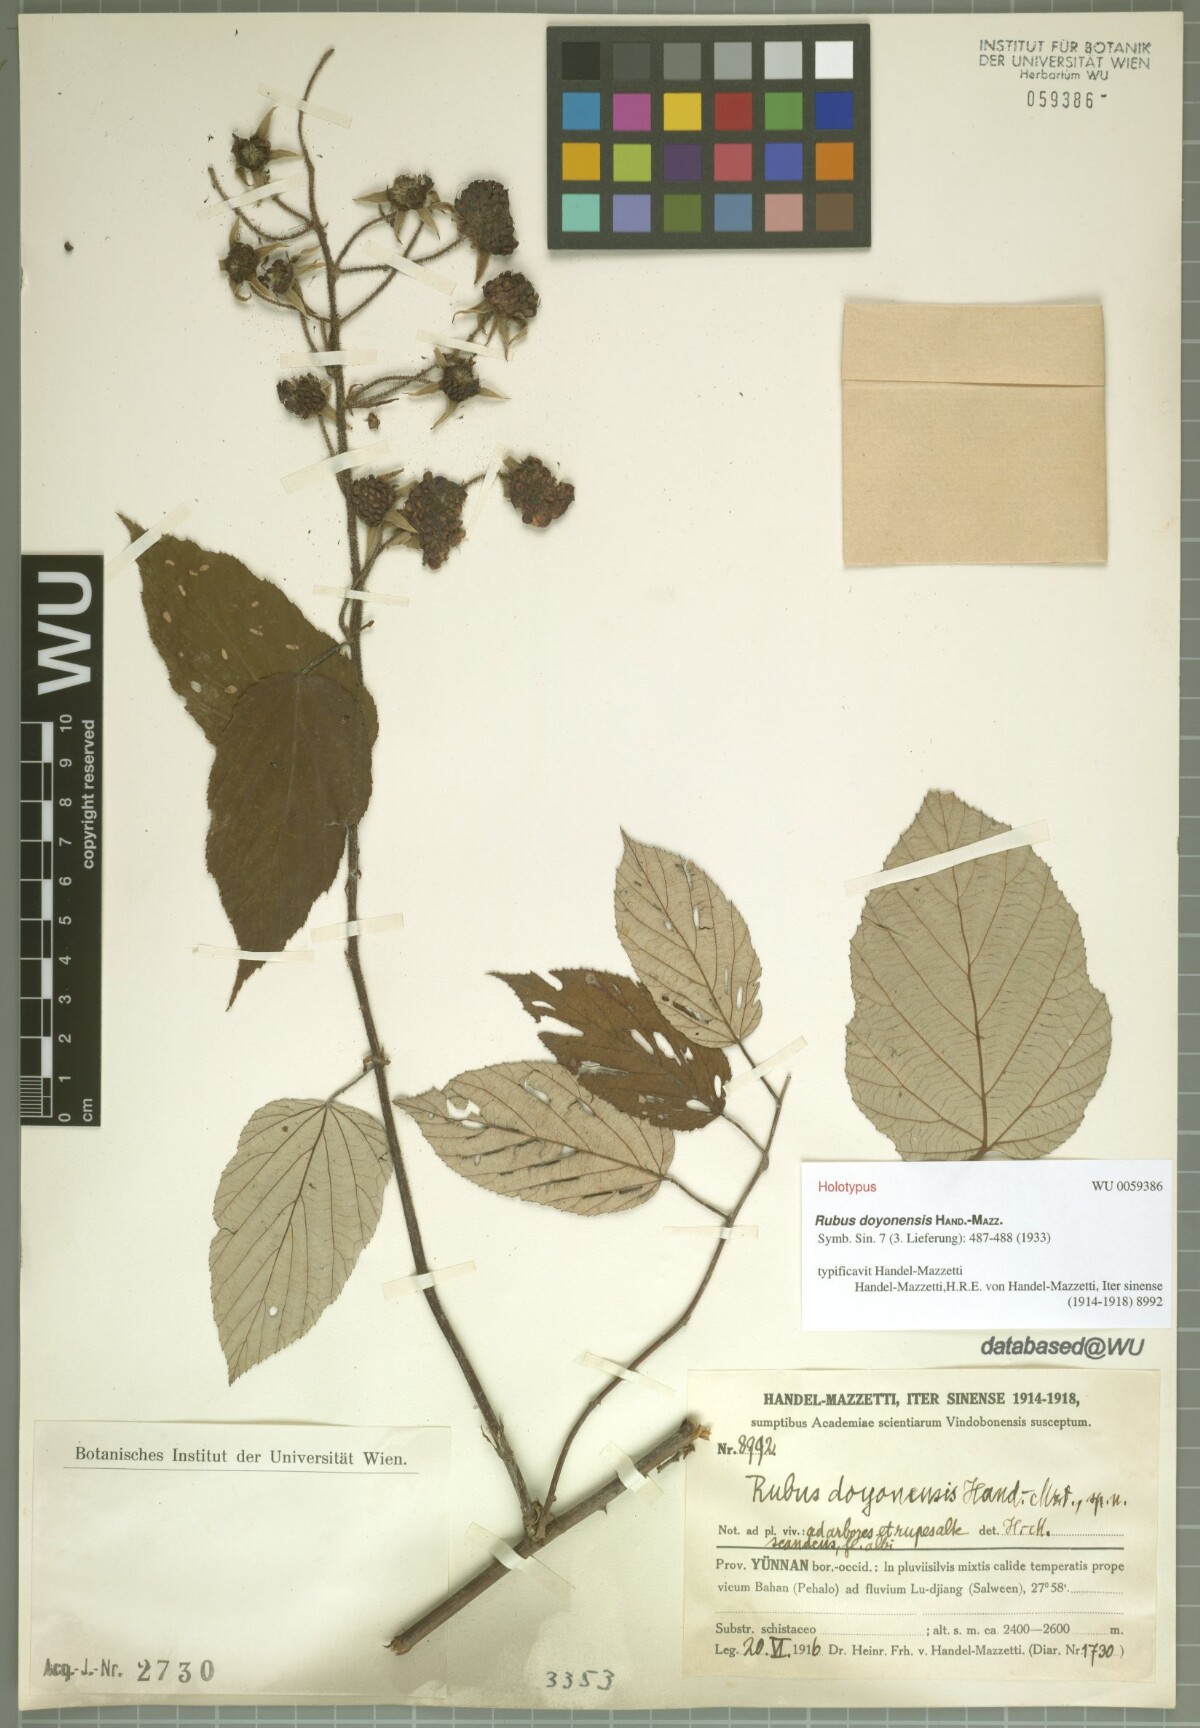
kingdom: Plantae
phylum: Tracheophyta
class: Magnoliopsida
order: Rosales
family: Rosaceae
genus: Rubus
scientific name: Rubus doyonensis
